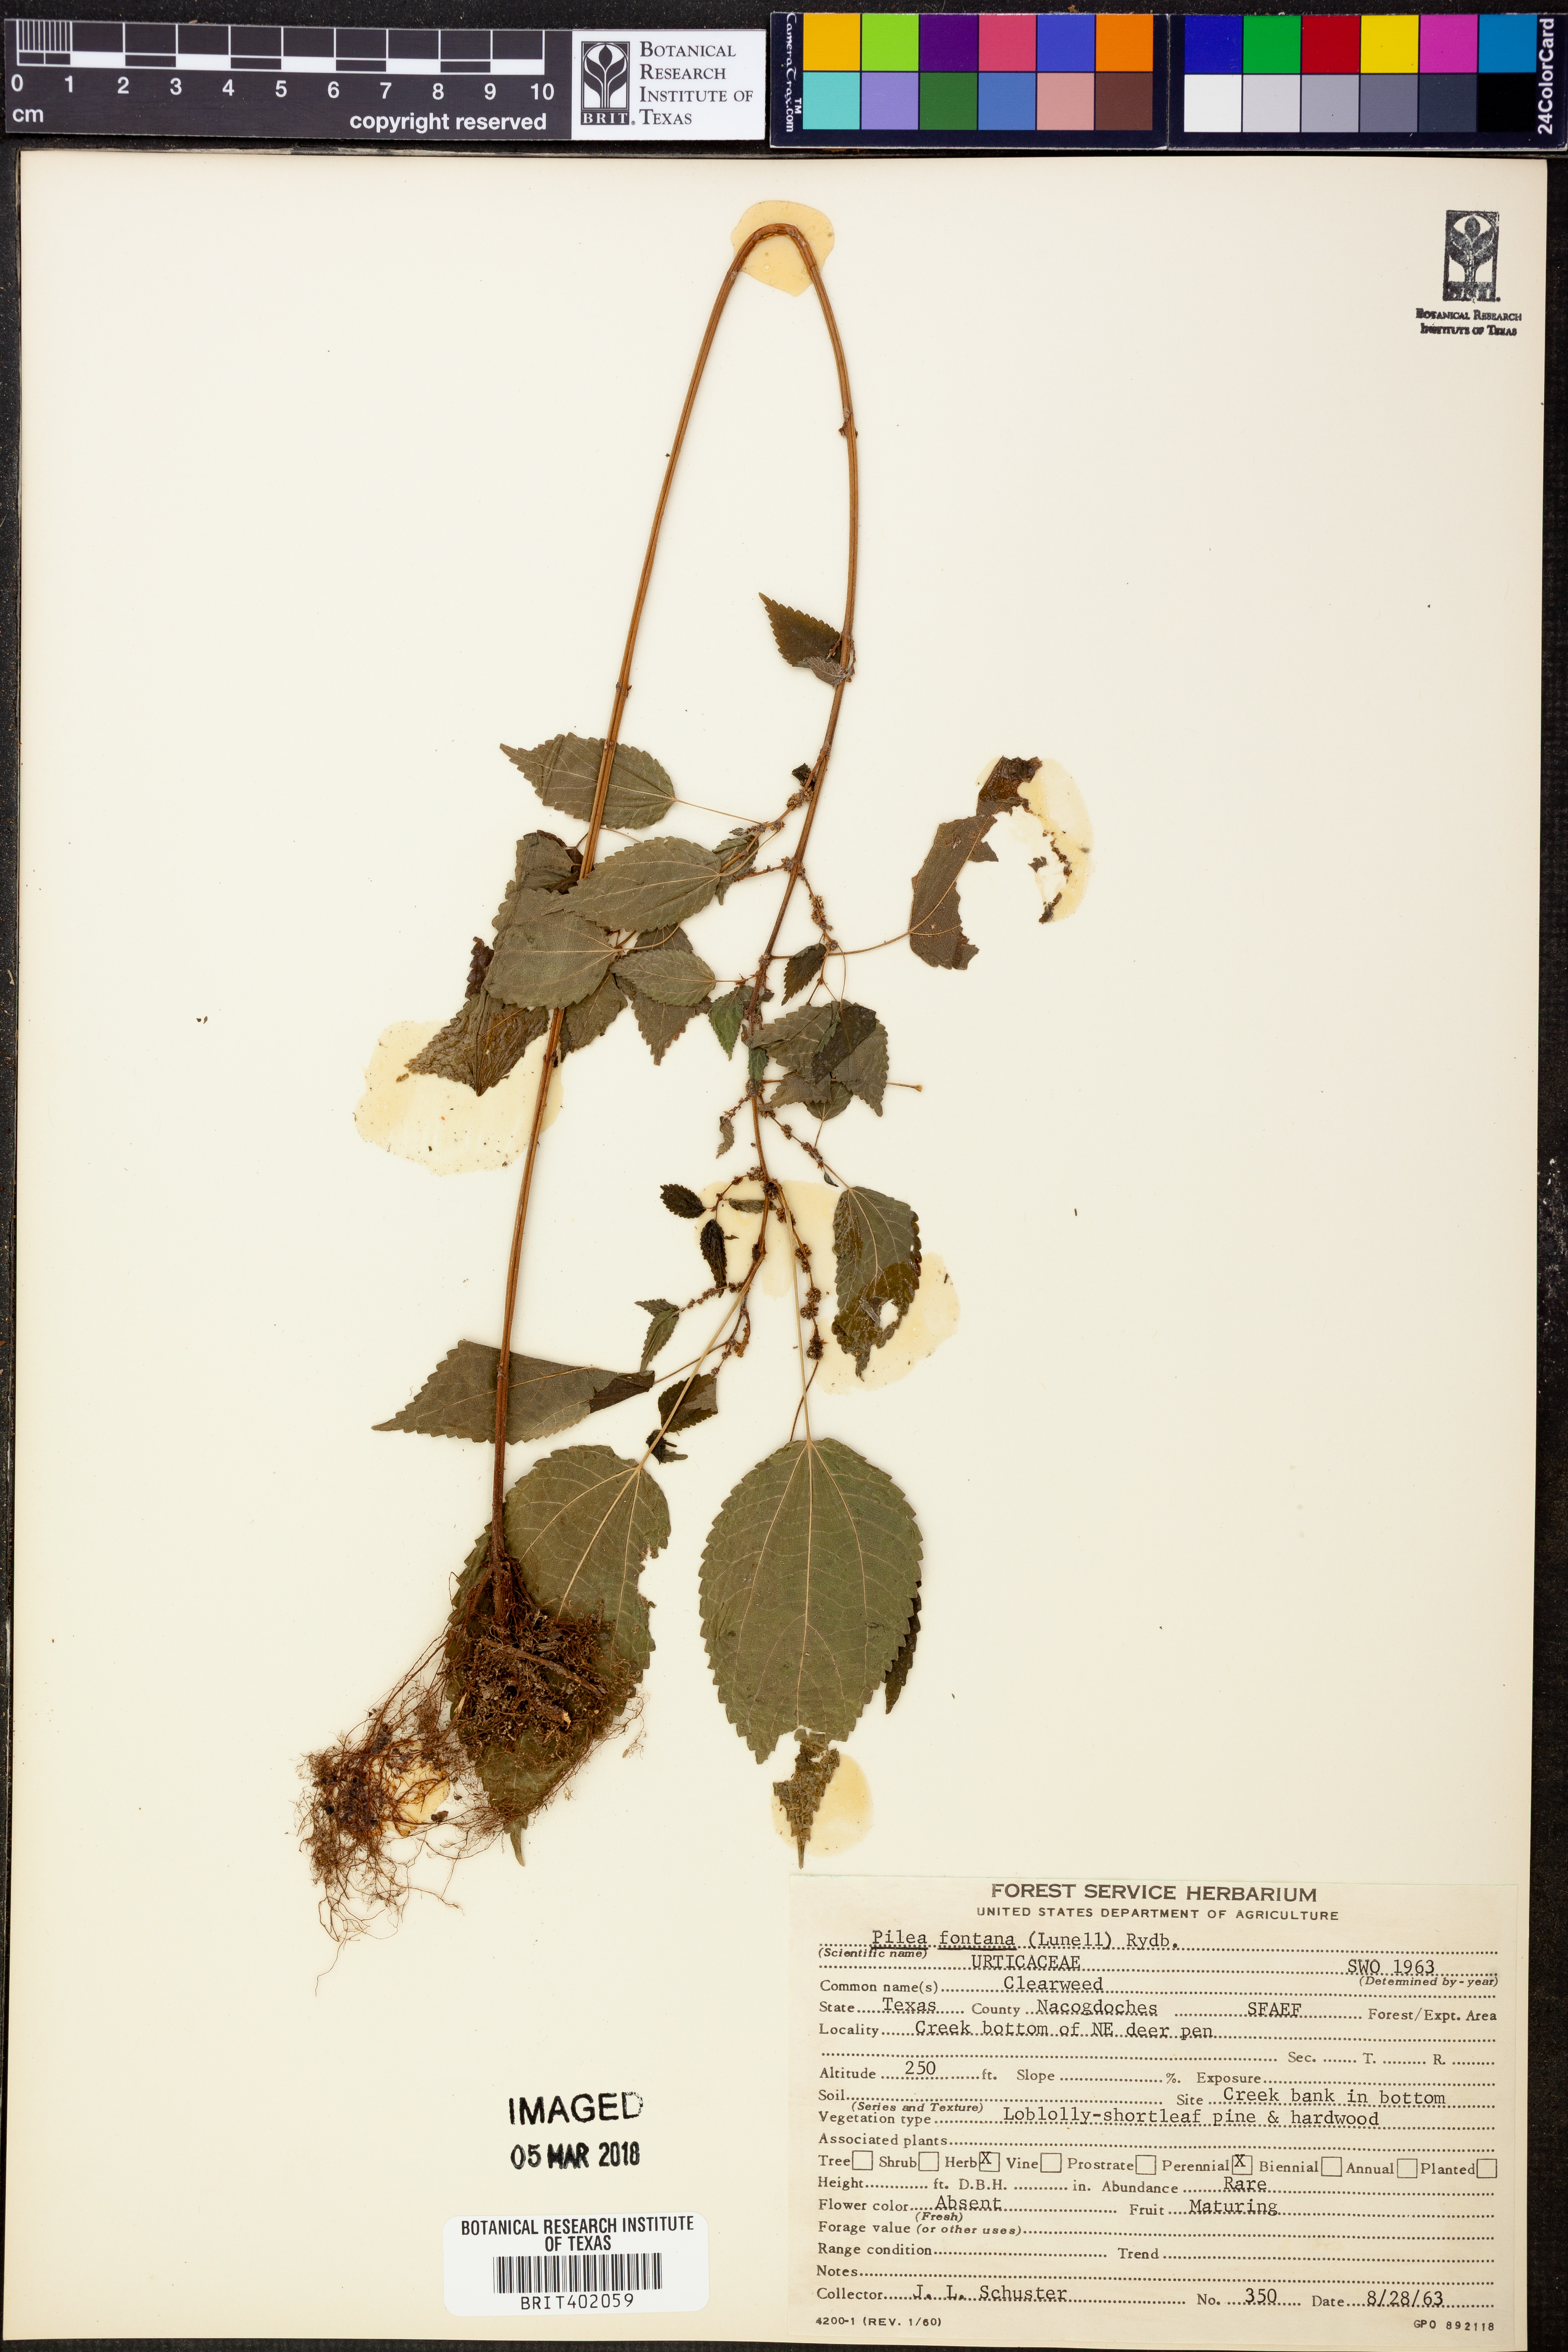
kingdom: Plantae
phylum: Tracheophyta
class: Magnoliopsida
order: Rosales
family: Urticaceae
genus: Pilea
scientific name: Pilea fontana
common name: Clearweed
